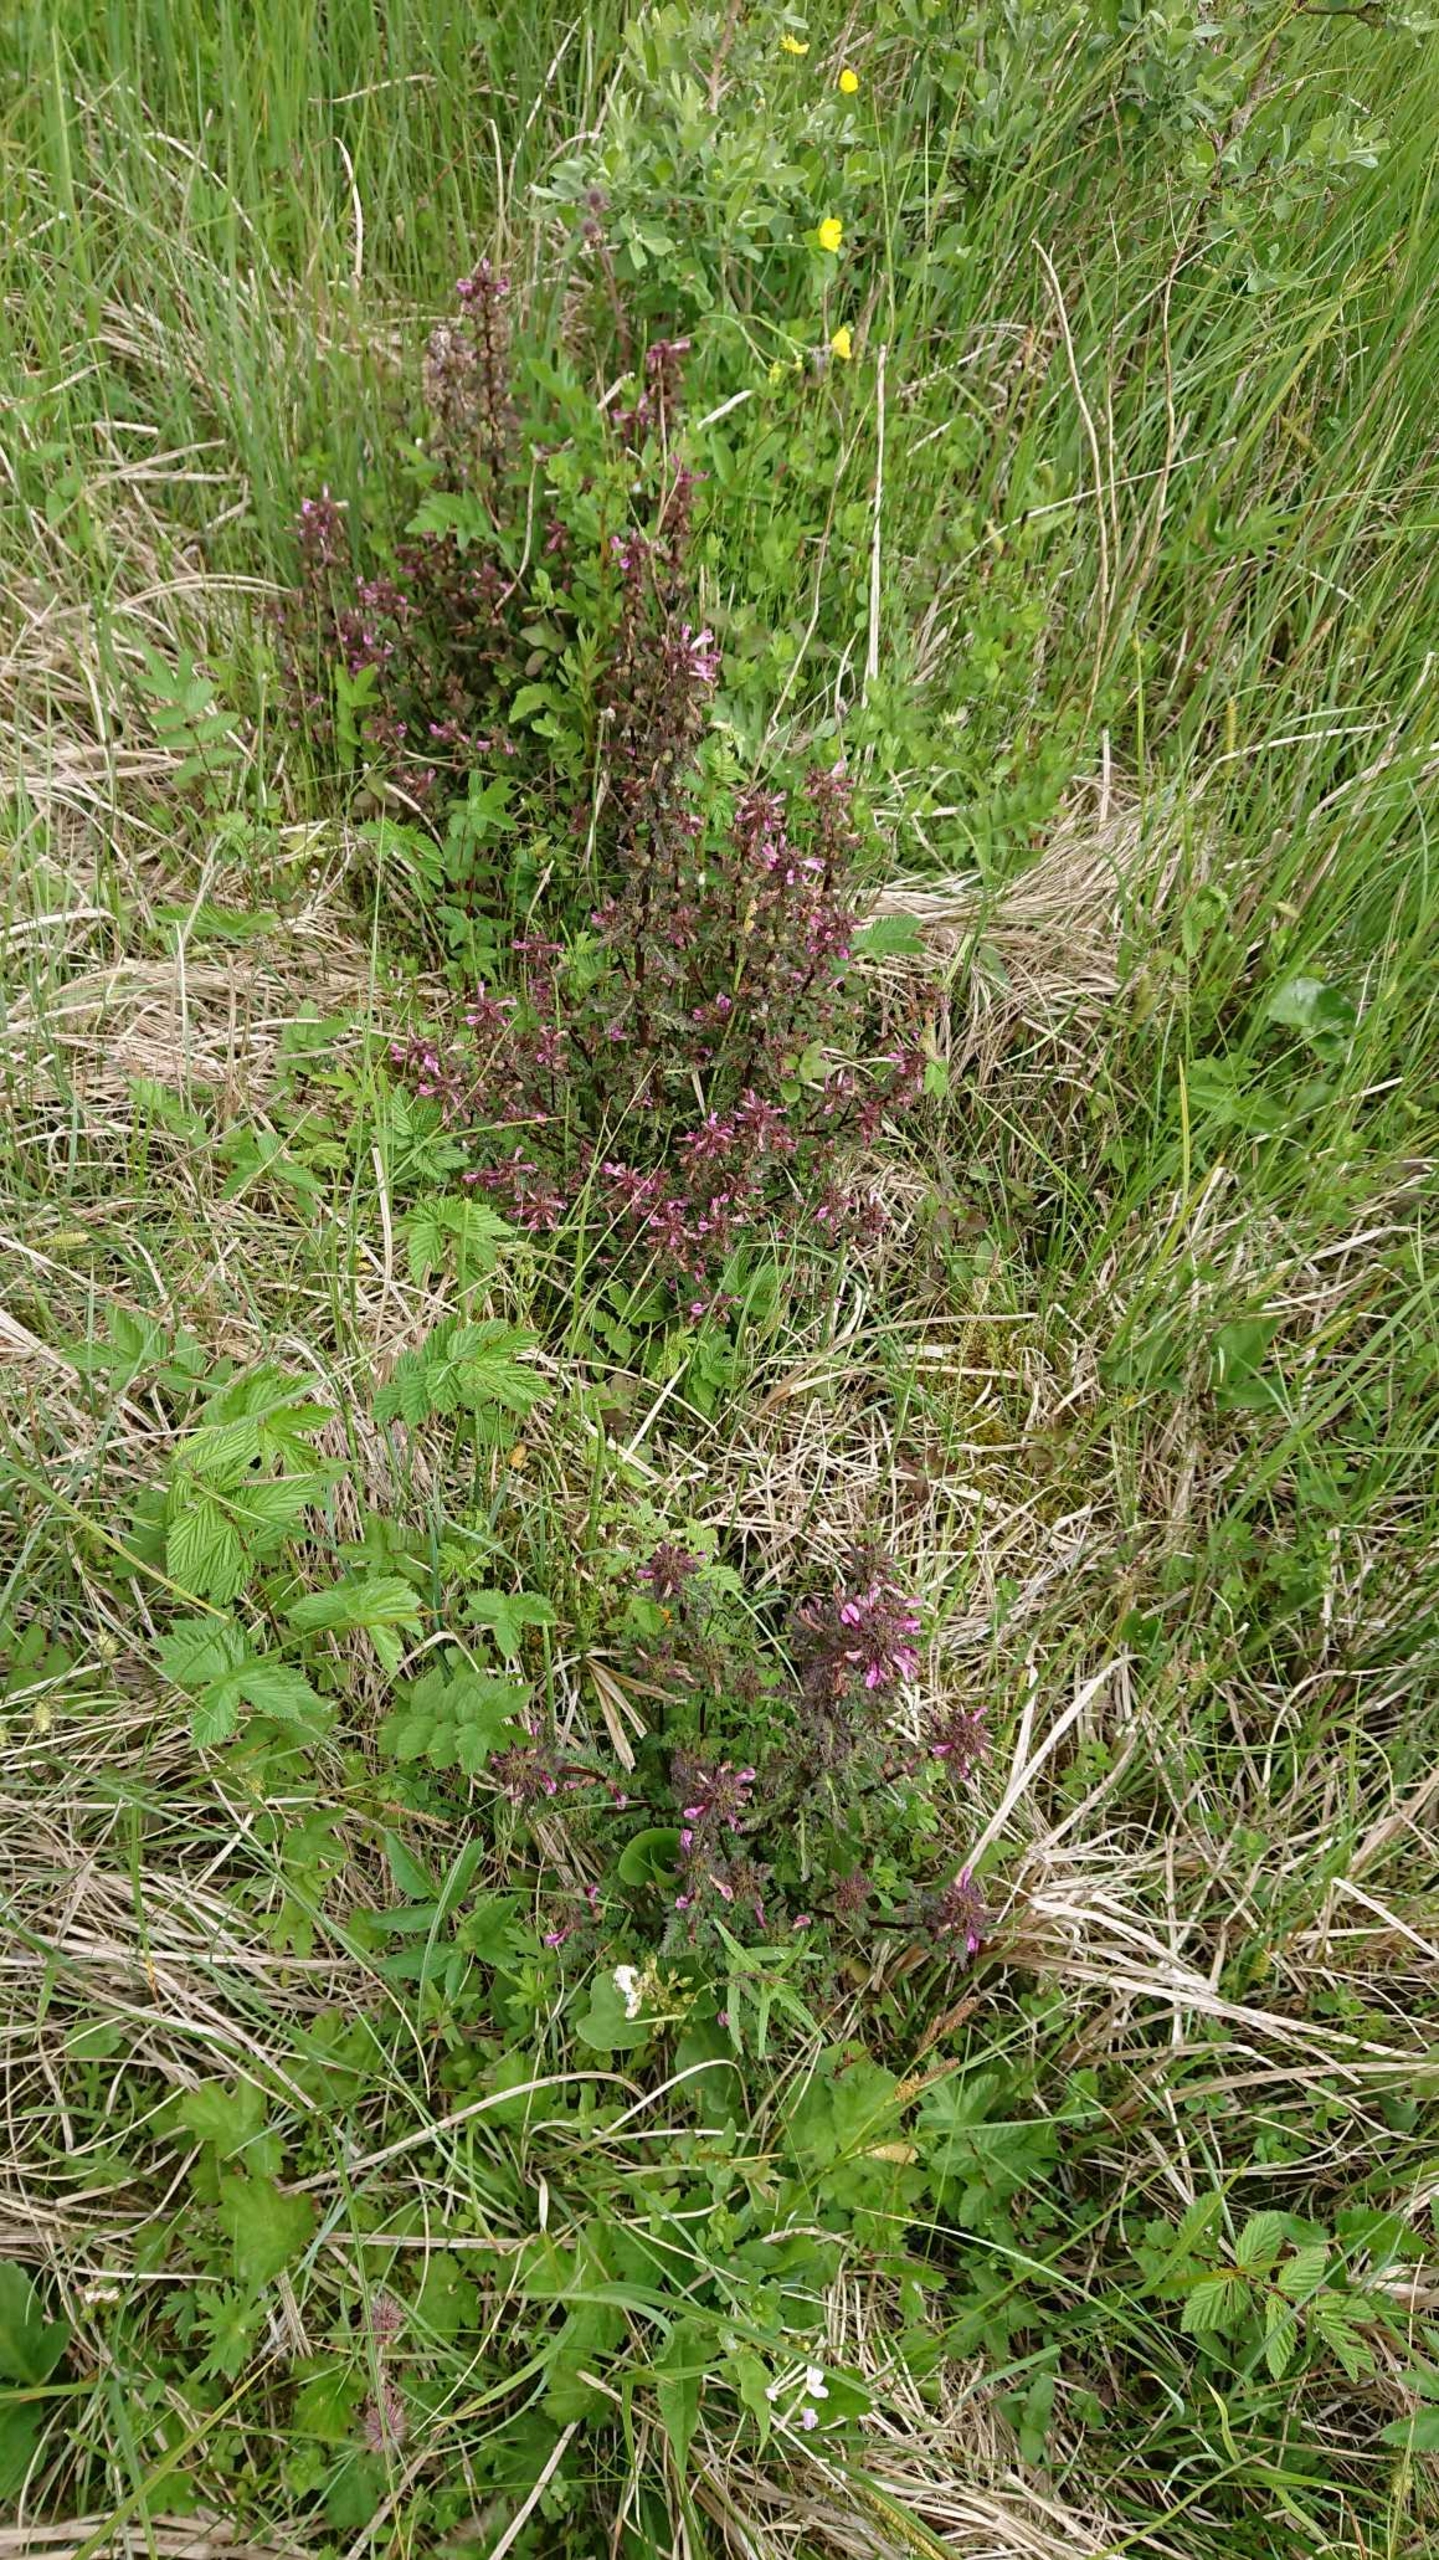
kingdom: Plantae
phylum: Tracheophyta
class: Magnoliopsida
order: Lamiales
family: Orobanchaceae
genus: Pedicularis
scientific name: Pedicularis palustris
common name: Eng-troldurt
